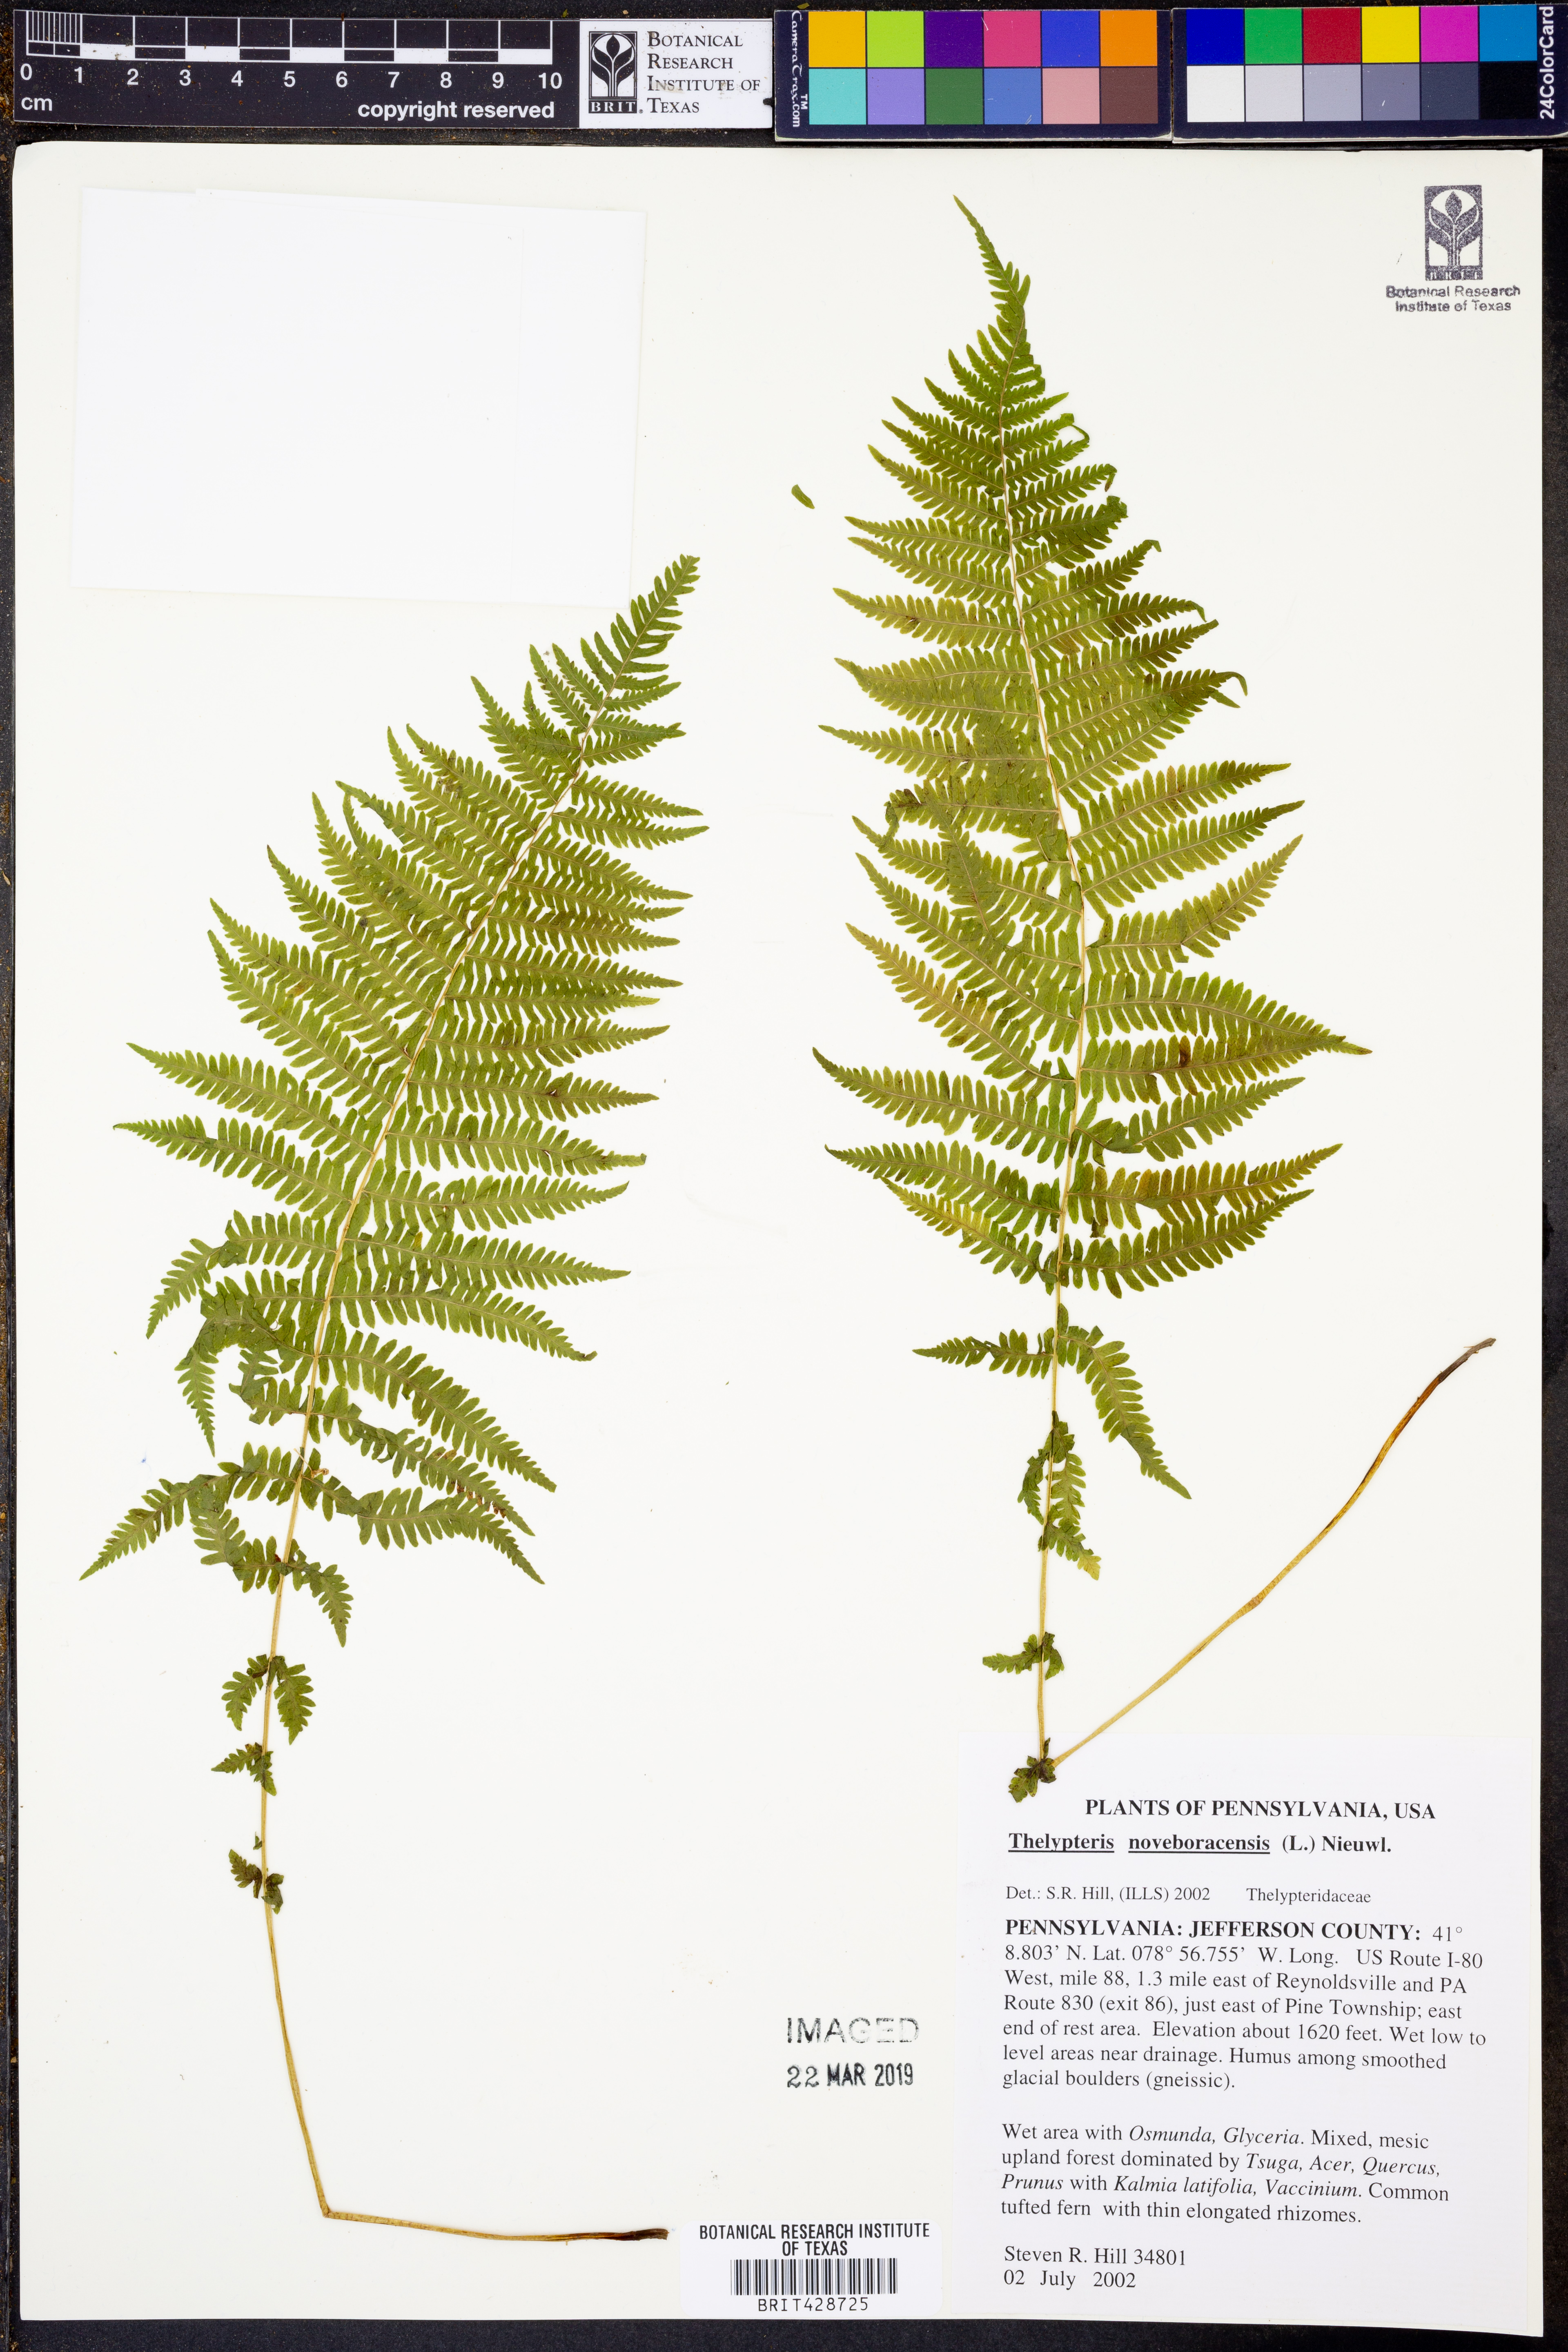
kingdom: Plantae
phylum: Tracheophyta
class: Polypodiopsida
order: Polypodiales
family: Thelypteridaceae
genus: Amauropelta
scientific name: Amauropelta noveboracensis
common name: New york fern
